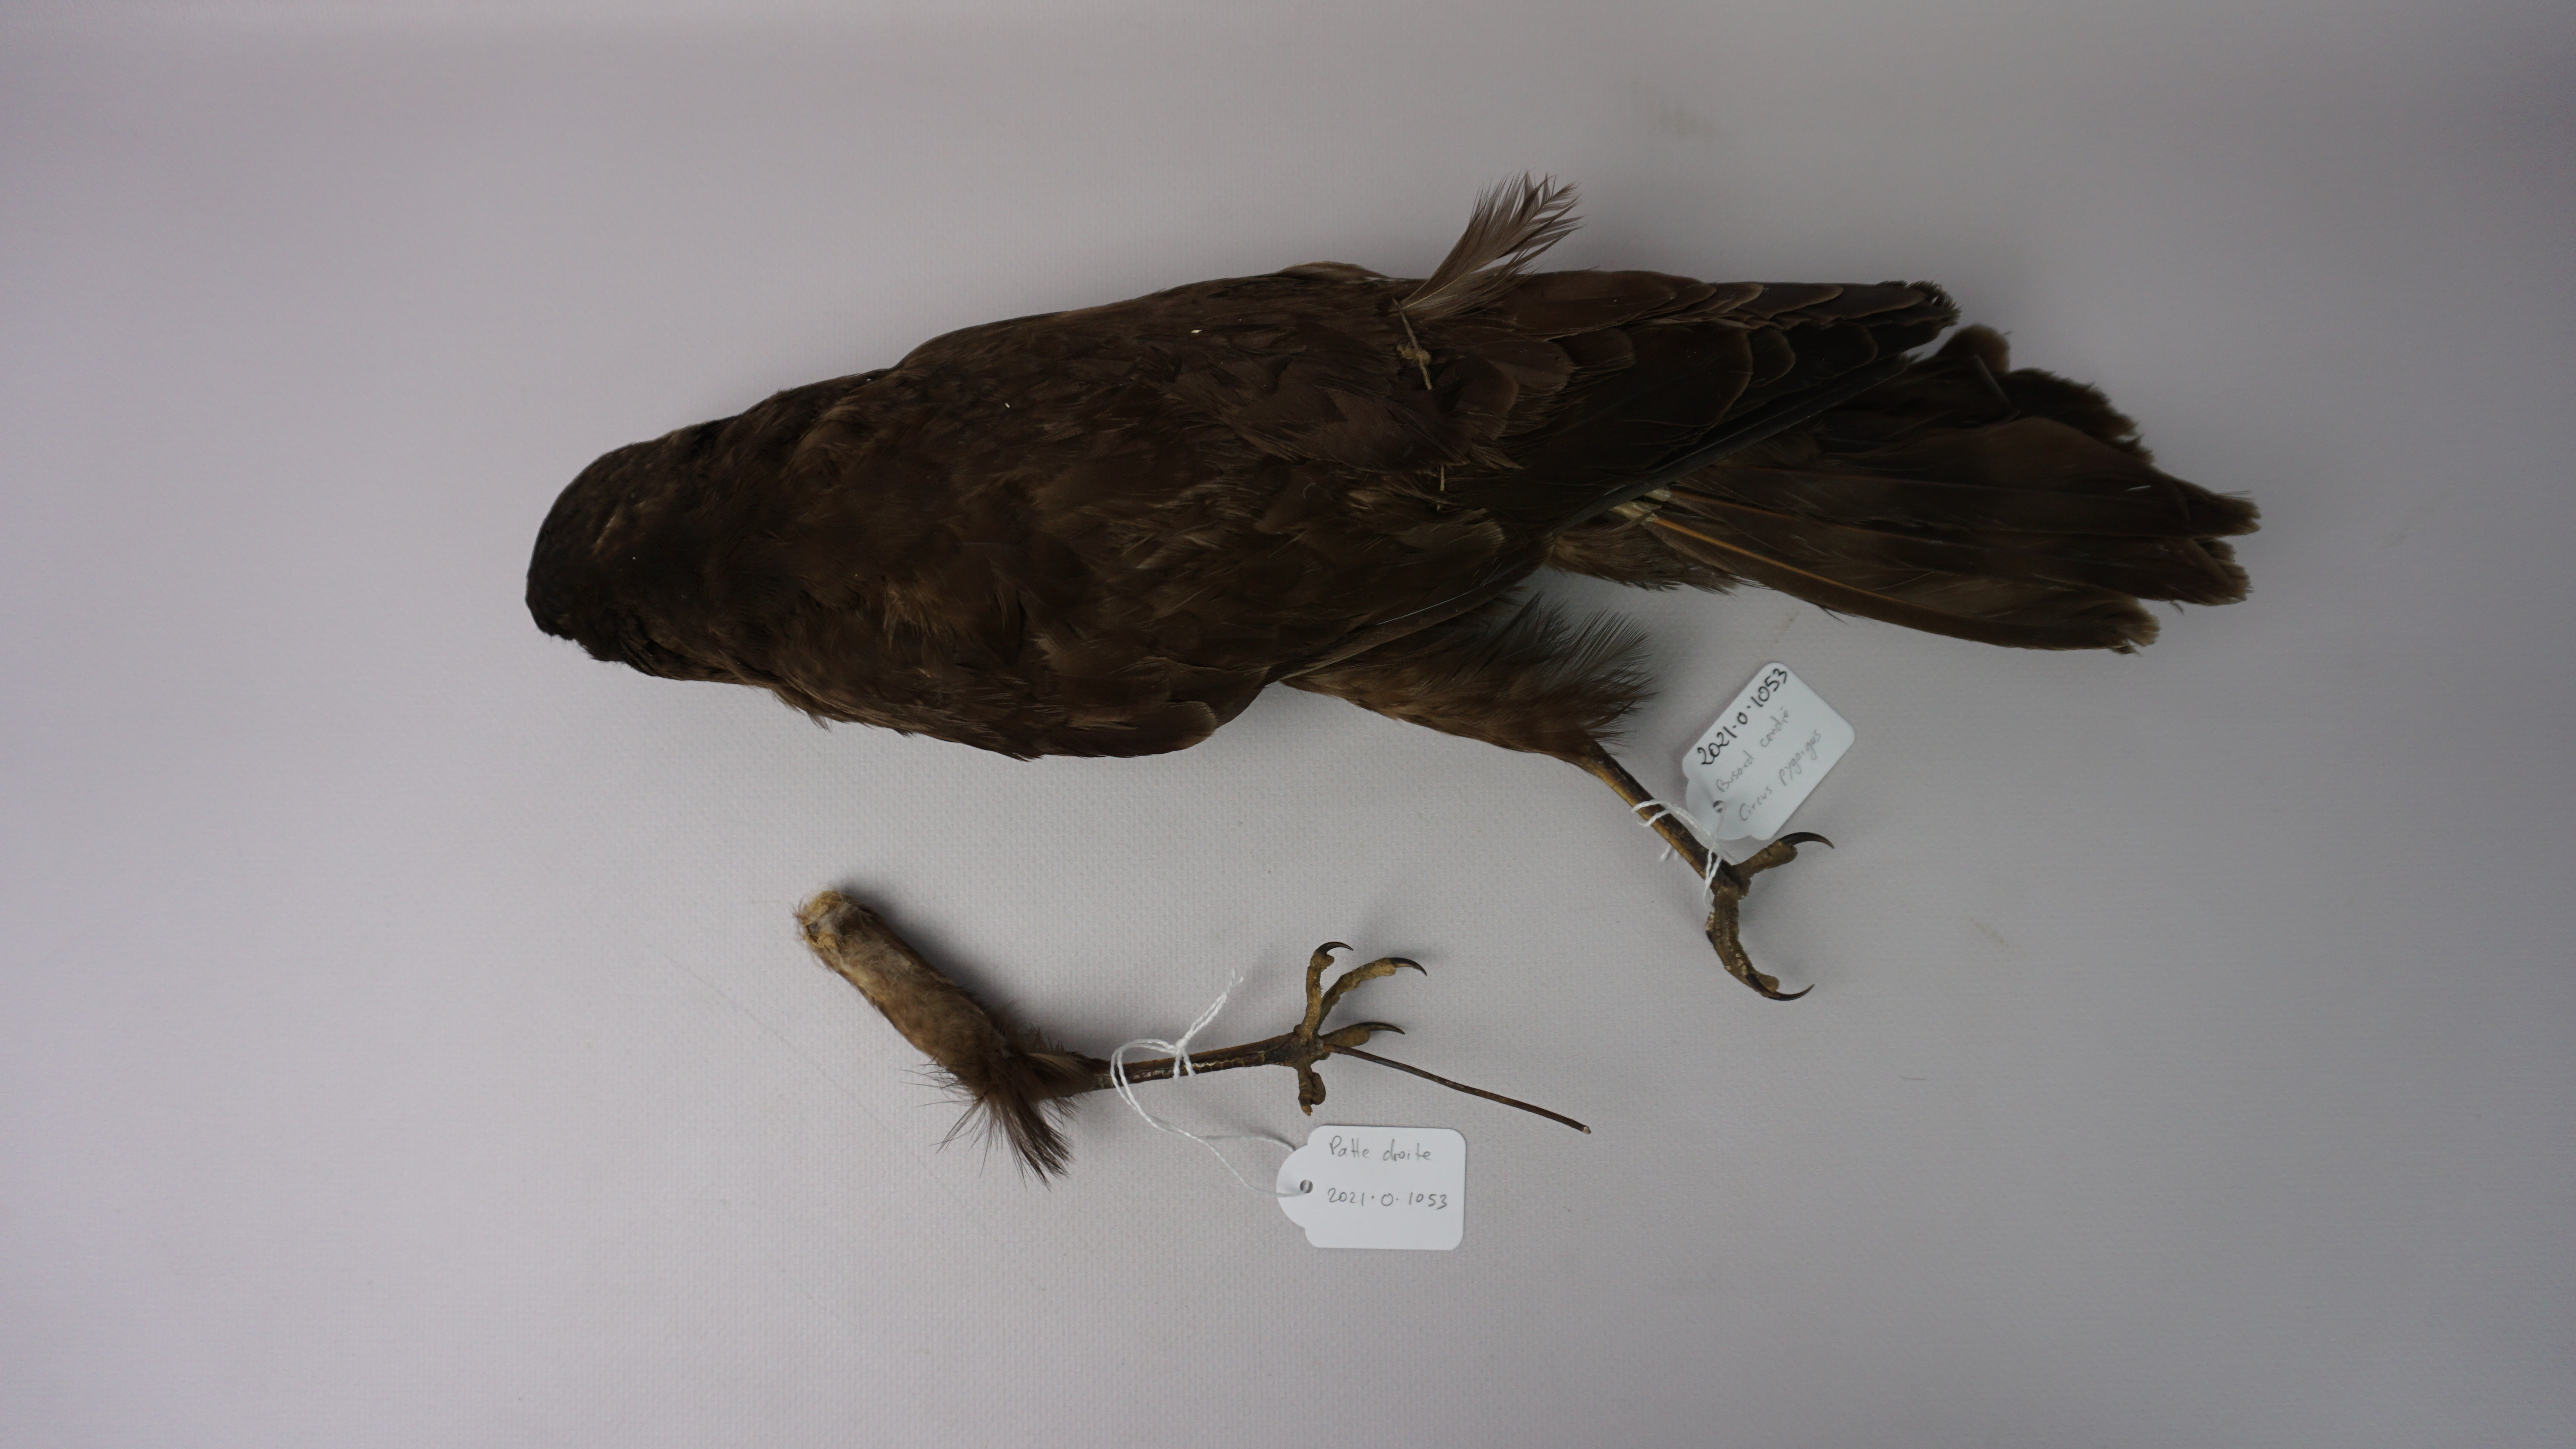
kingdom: Animalia
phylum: Chordata
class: Aves
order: Accipitriformes
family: Accipitridae
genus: Circus
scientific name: Circus pygargus
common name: Montagu's harrier
